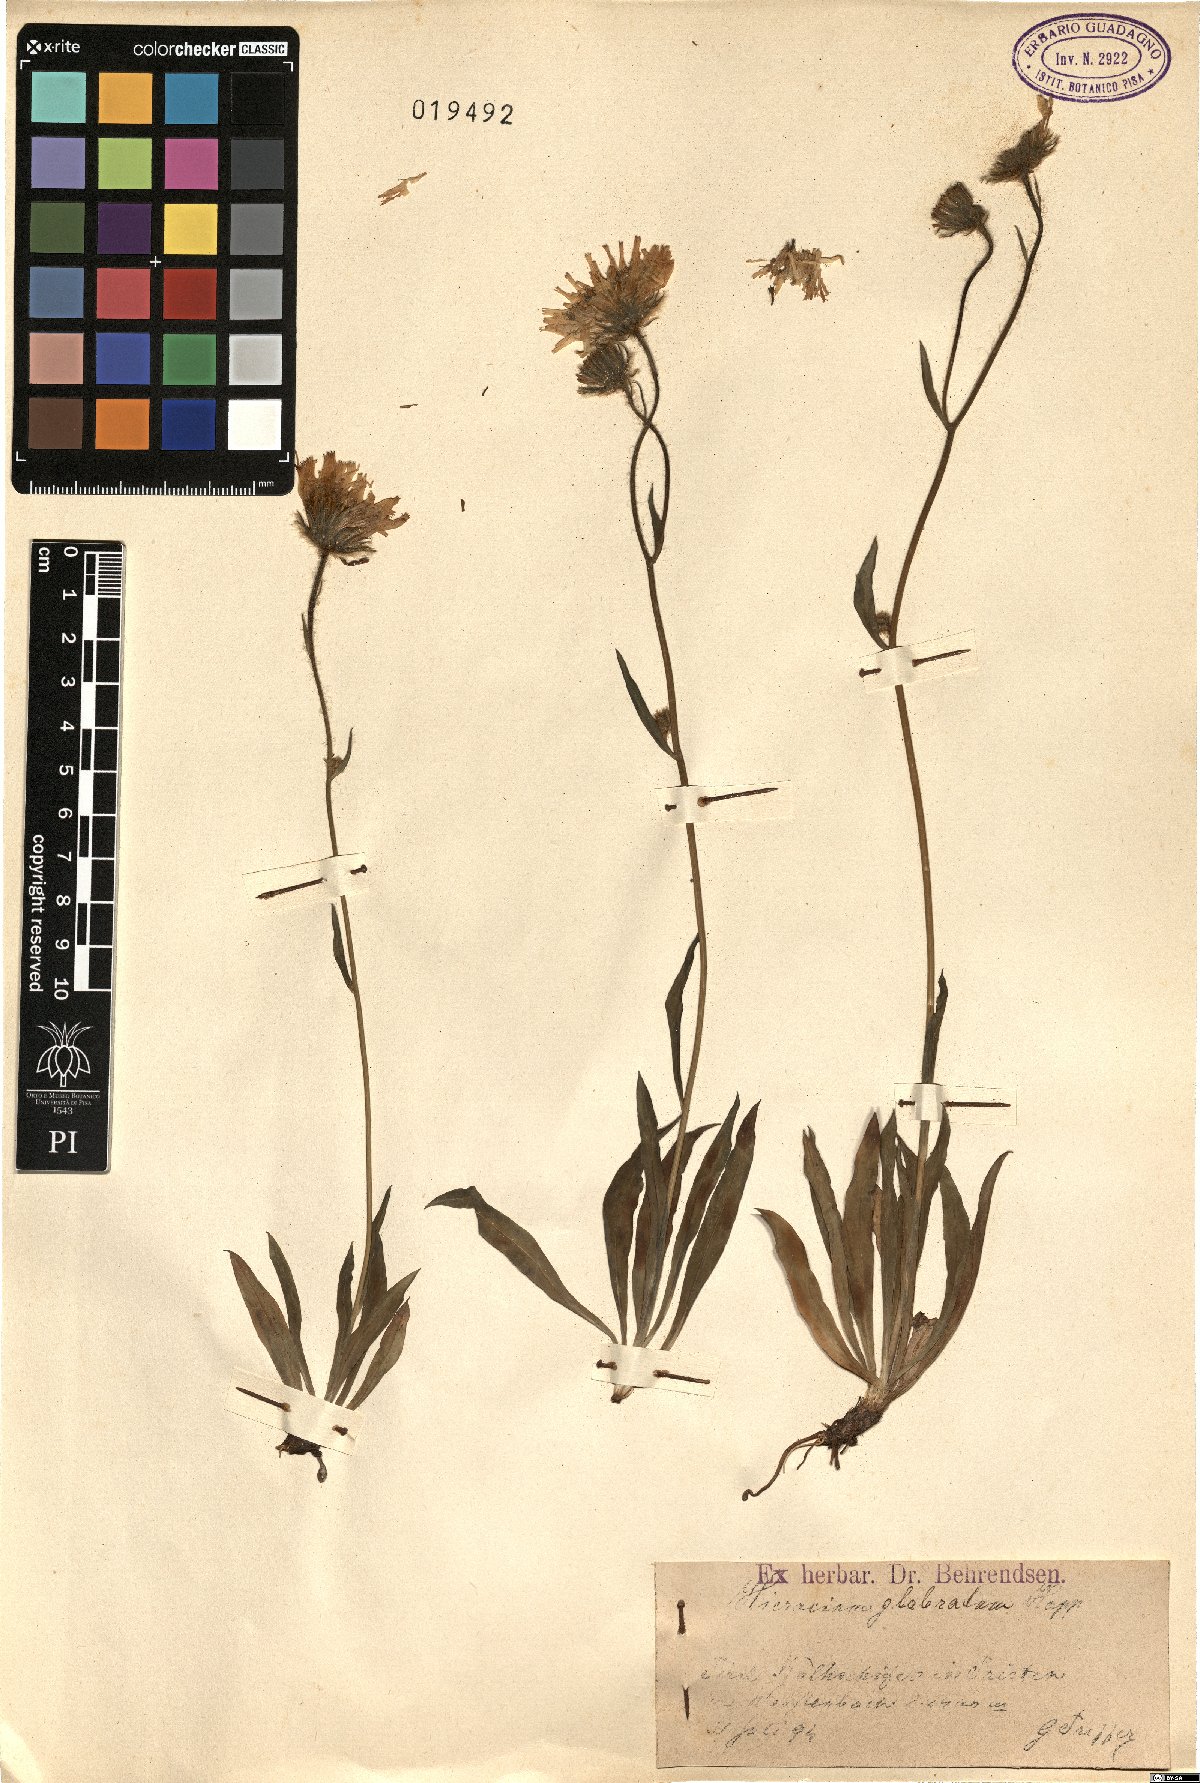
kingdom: Plantae
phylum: Tracheophyta
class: Magnoliopsida
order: Asterales
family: Asteraceae
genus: Hieracium
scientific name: Hieracium glabratum
